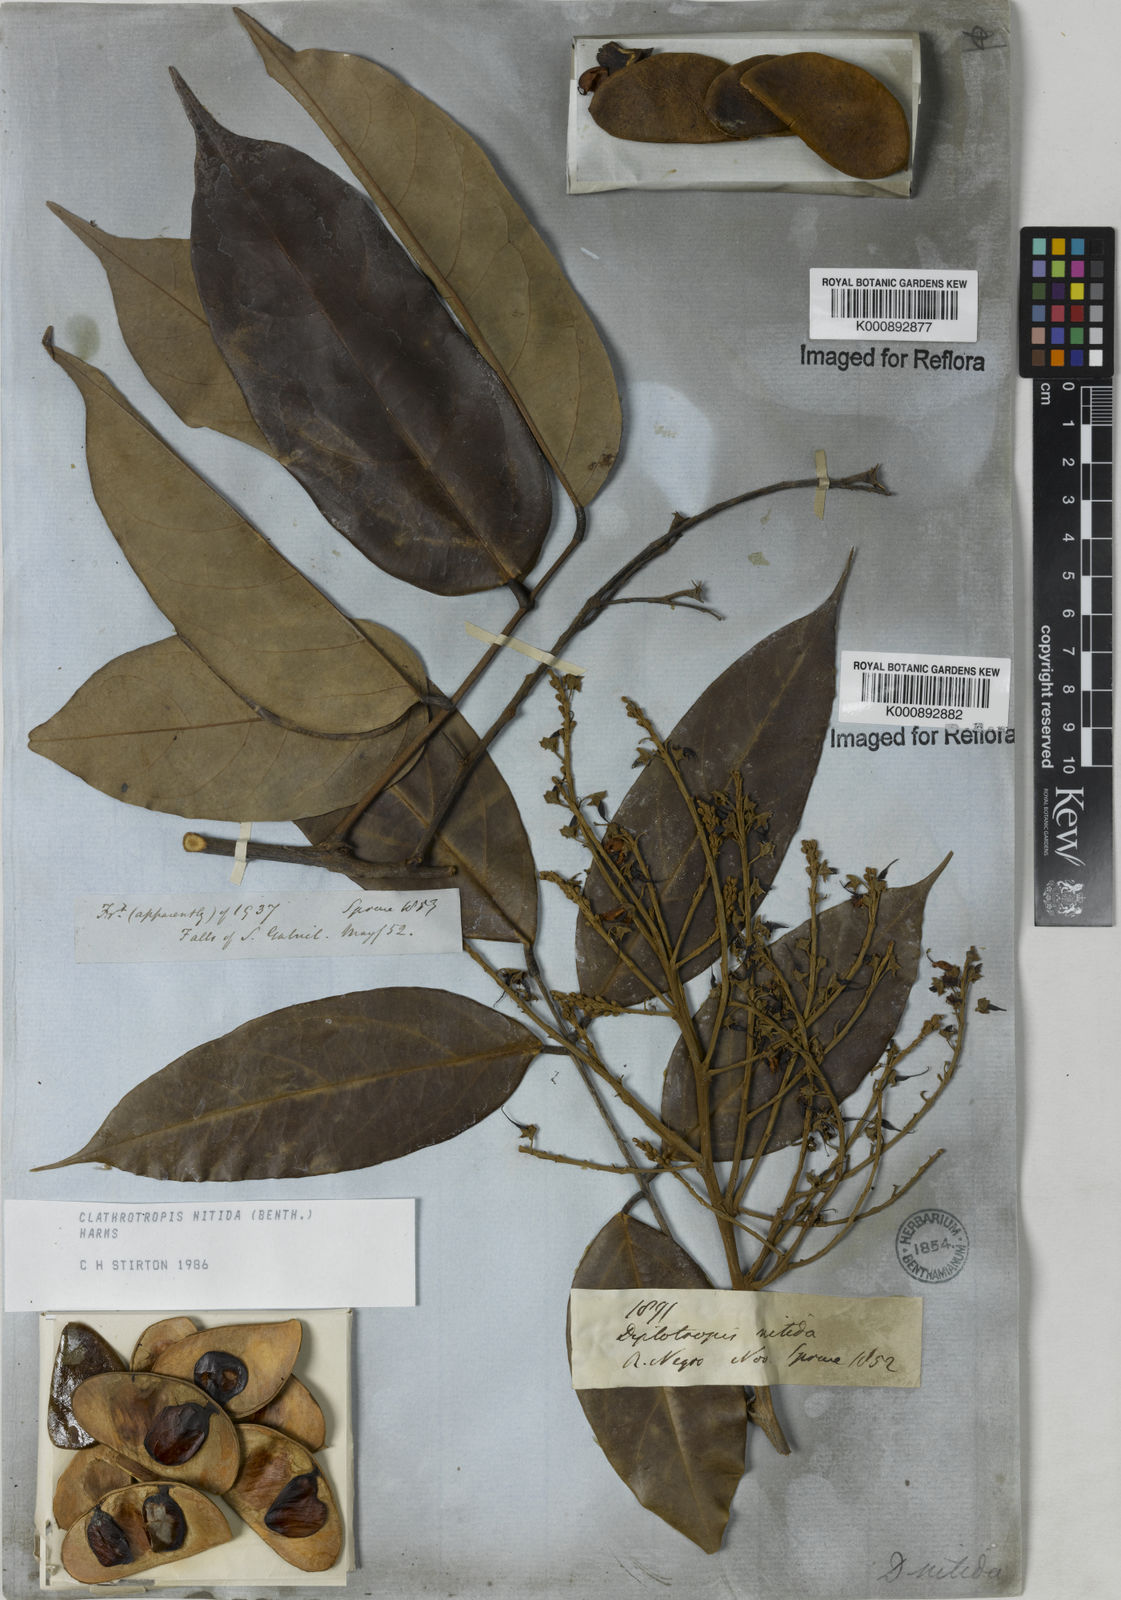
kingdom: Plantae
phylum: Tracheophyta
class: Magnoliopsida
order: Fabales
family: Fabaceae
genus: Clathrotropis
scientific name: Clathrotropis nitida
